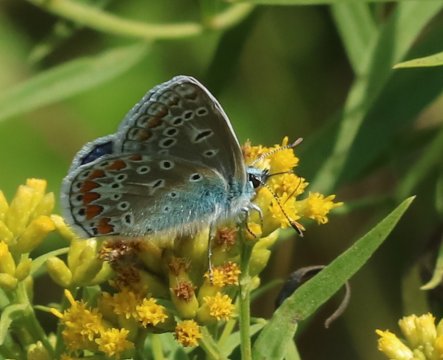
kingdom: Animalia
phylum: Arthropoda
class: Insecta
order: Lepidoptera
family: Lycaenidae
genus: Polyommatus
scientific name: Polyommatus icarus
